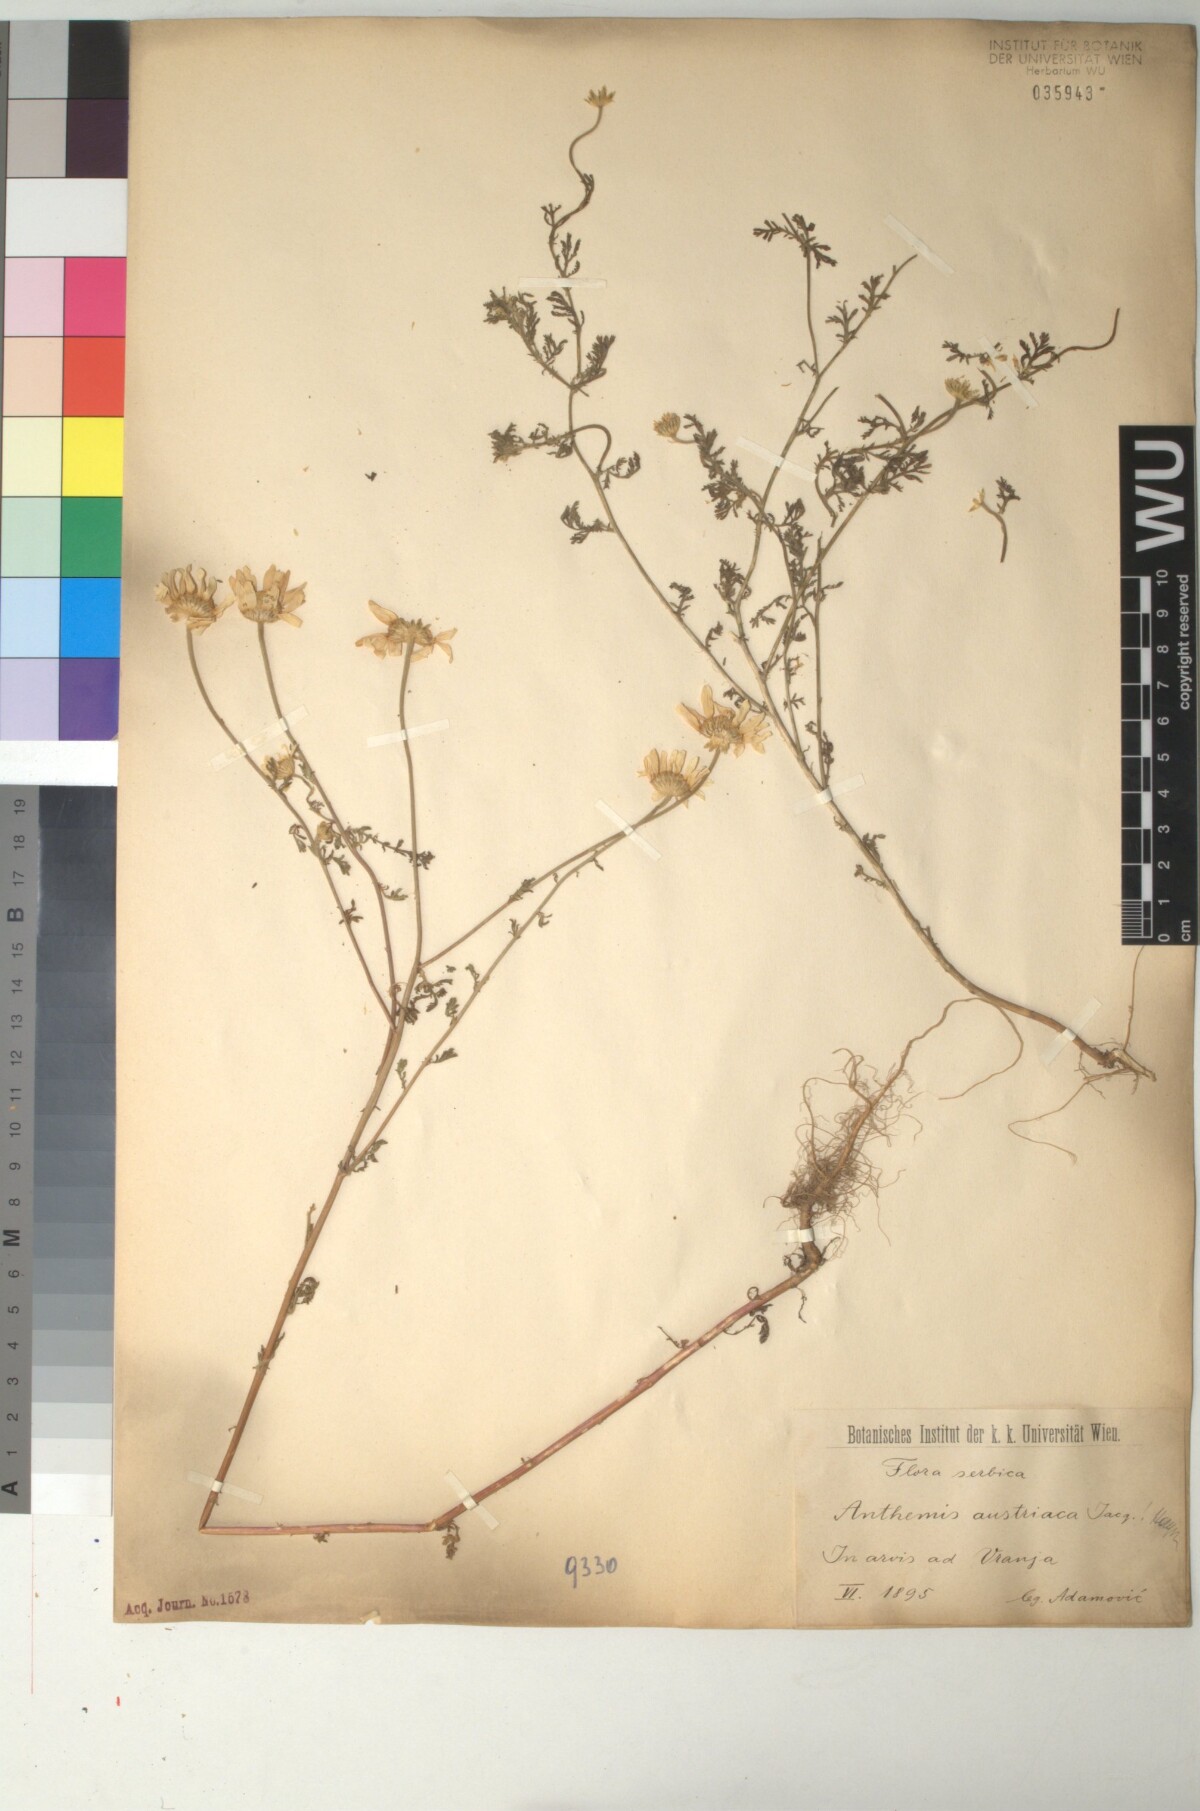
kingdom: Plantae
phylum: Tracheophyta
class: Magnoliopsida
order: Asterales
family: Asteraceae
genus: Cota
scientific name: Cota austriaca
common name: Austrian chamomile
